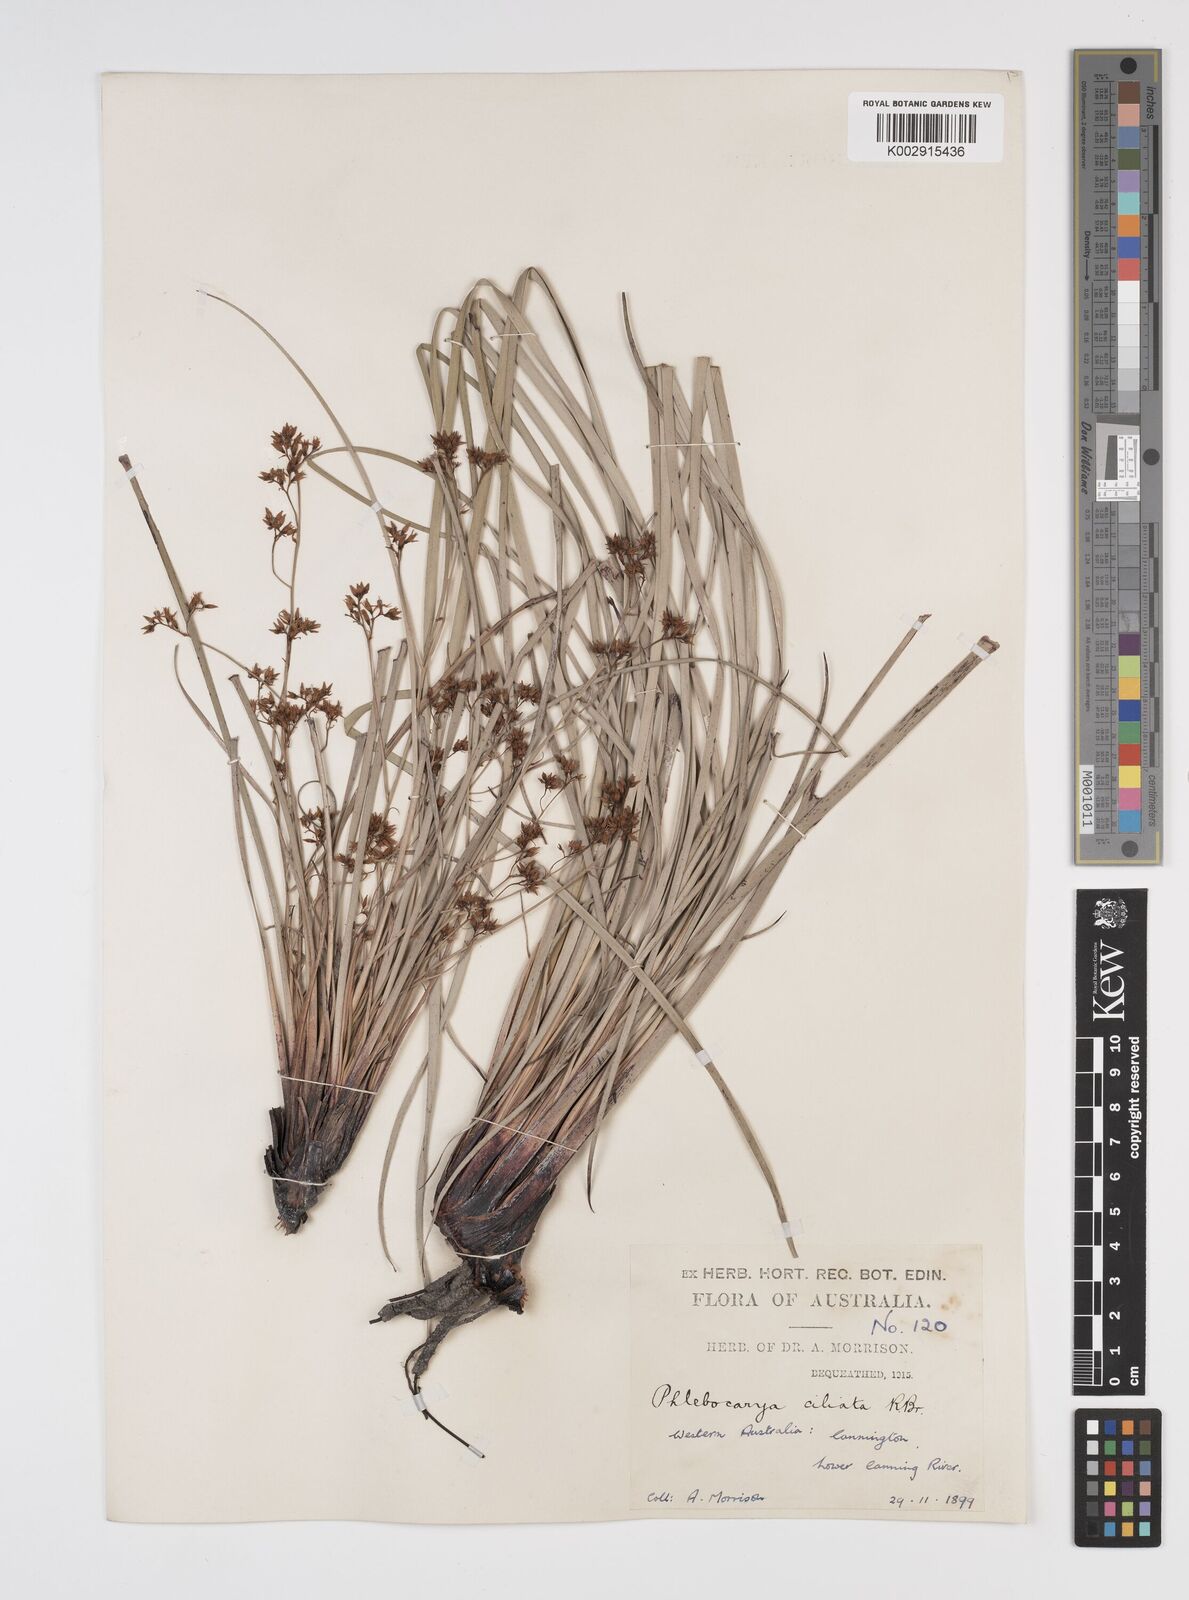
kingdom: Plantae
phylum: Tracheophyta
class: Liliopsida
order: Commelinales
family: Haemodoraceae
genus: Phlebocarya
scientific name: Phlebocarya ciliata
